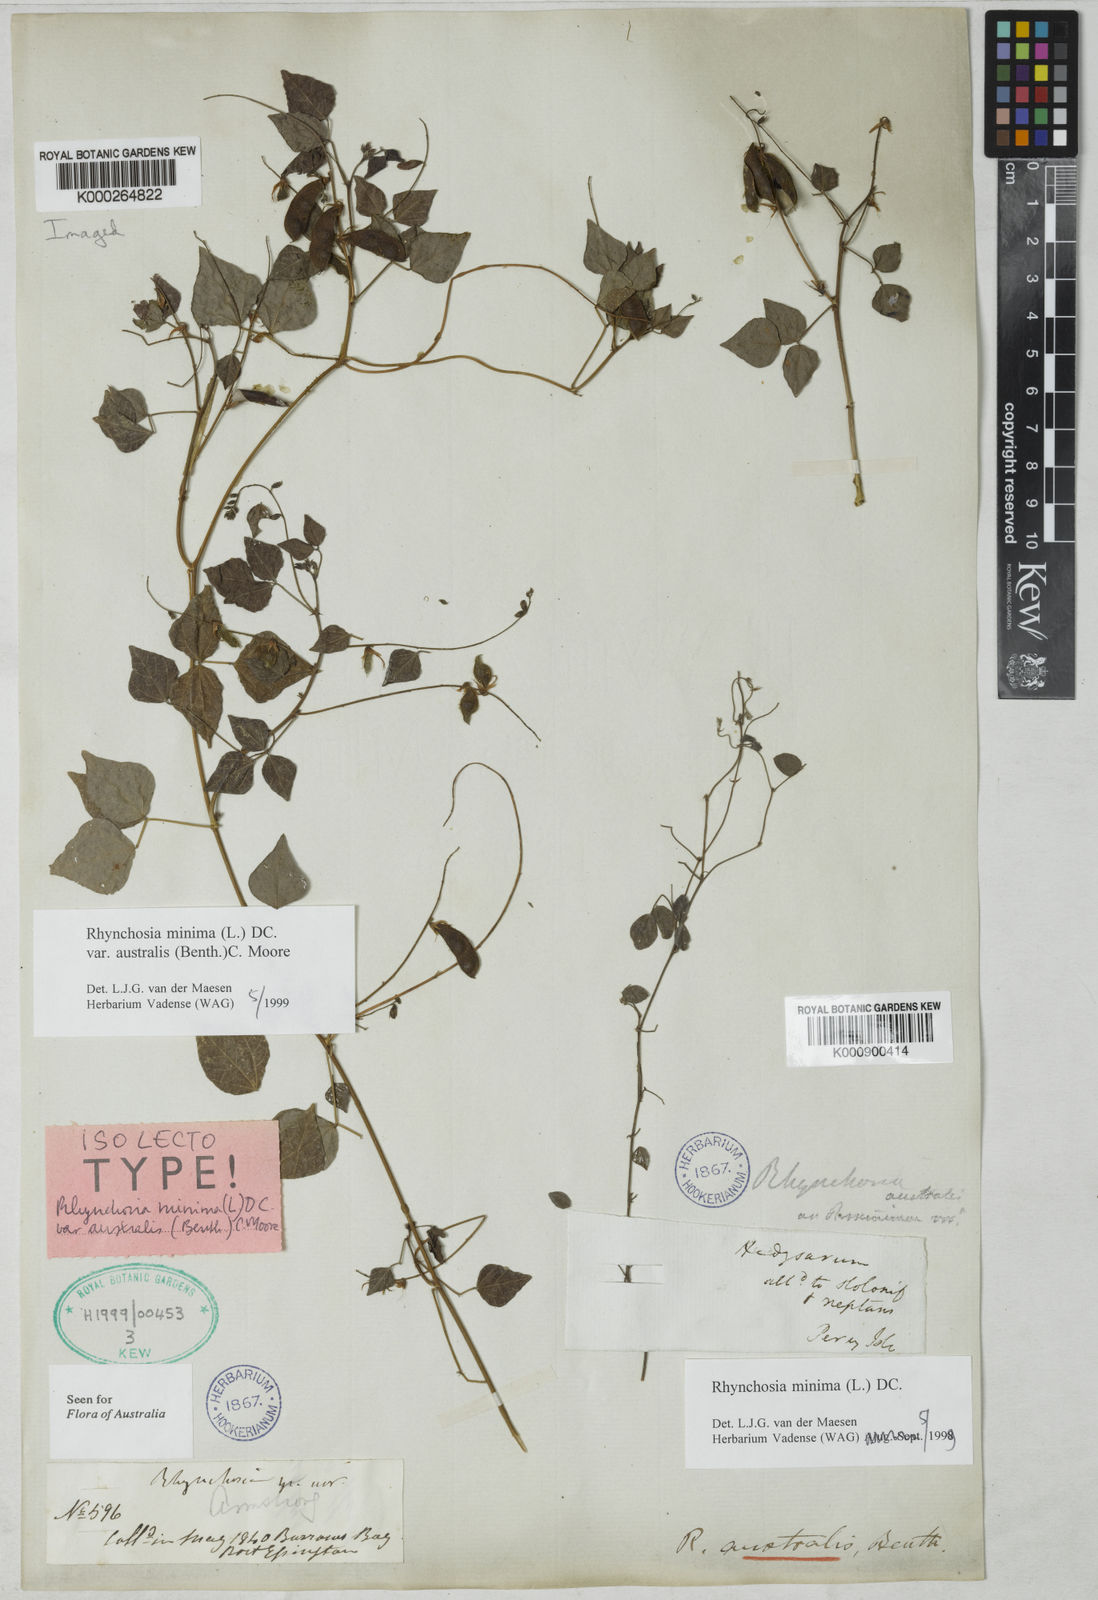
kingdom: Plantae
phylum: Tracheophyta
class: Magnoliopsida
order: Fabales
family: Fabaceae
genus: Rhynchosia
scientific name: Rhynchosia australis
